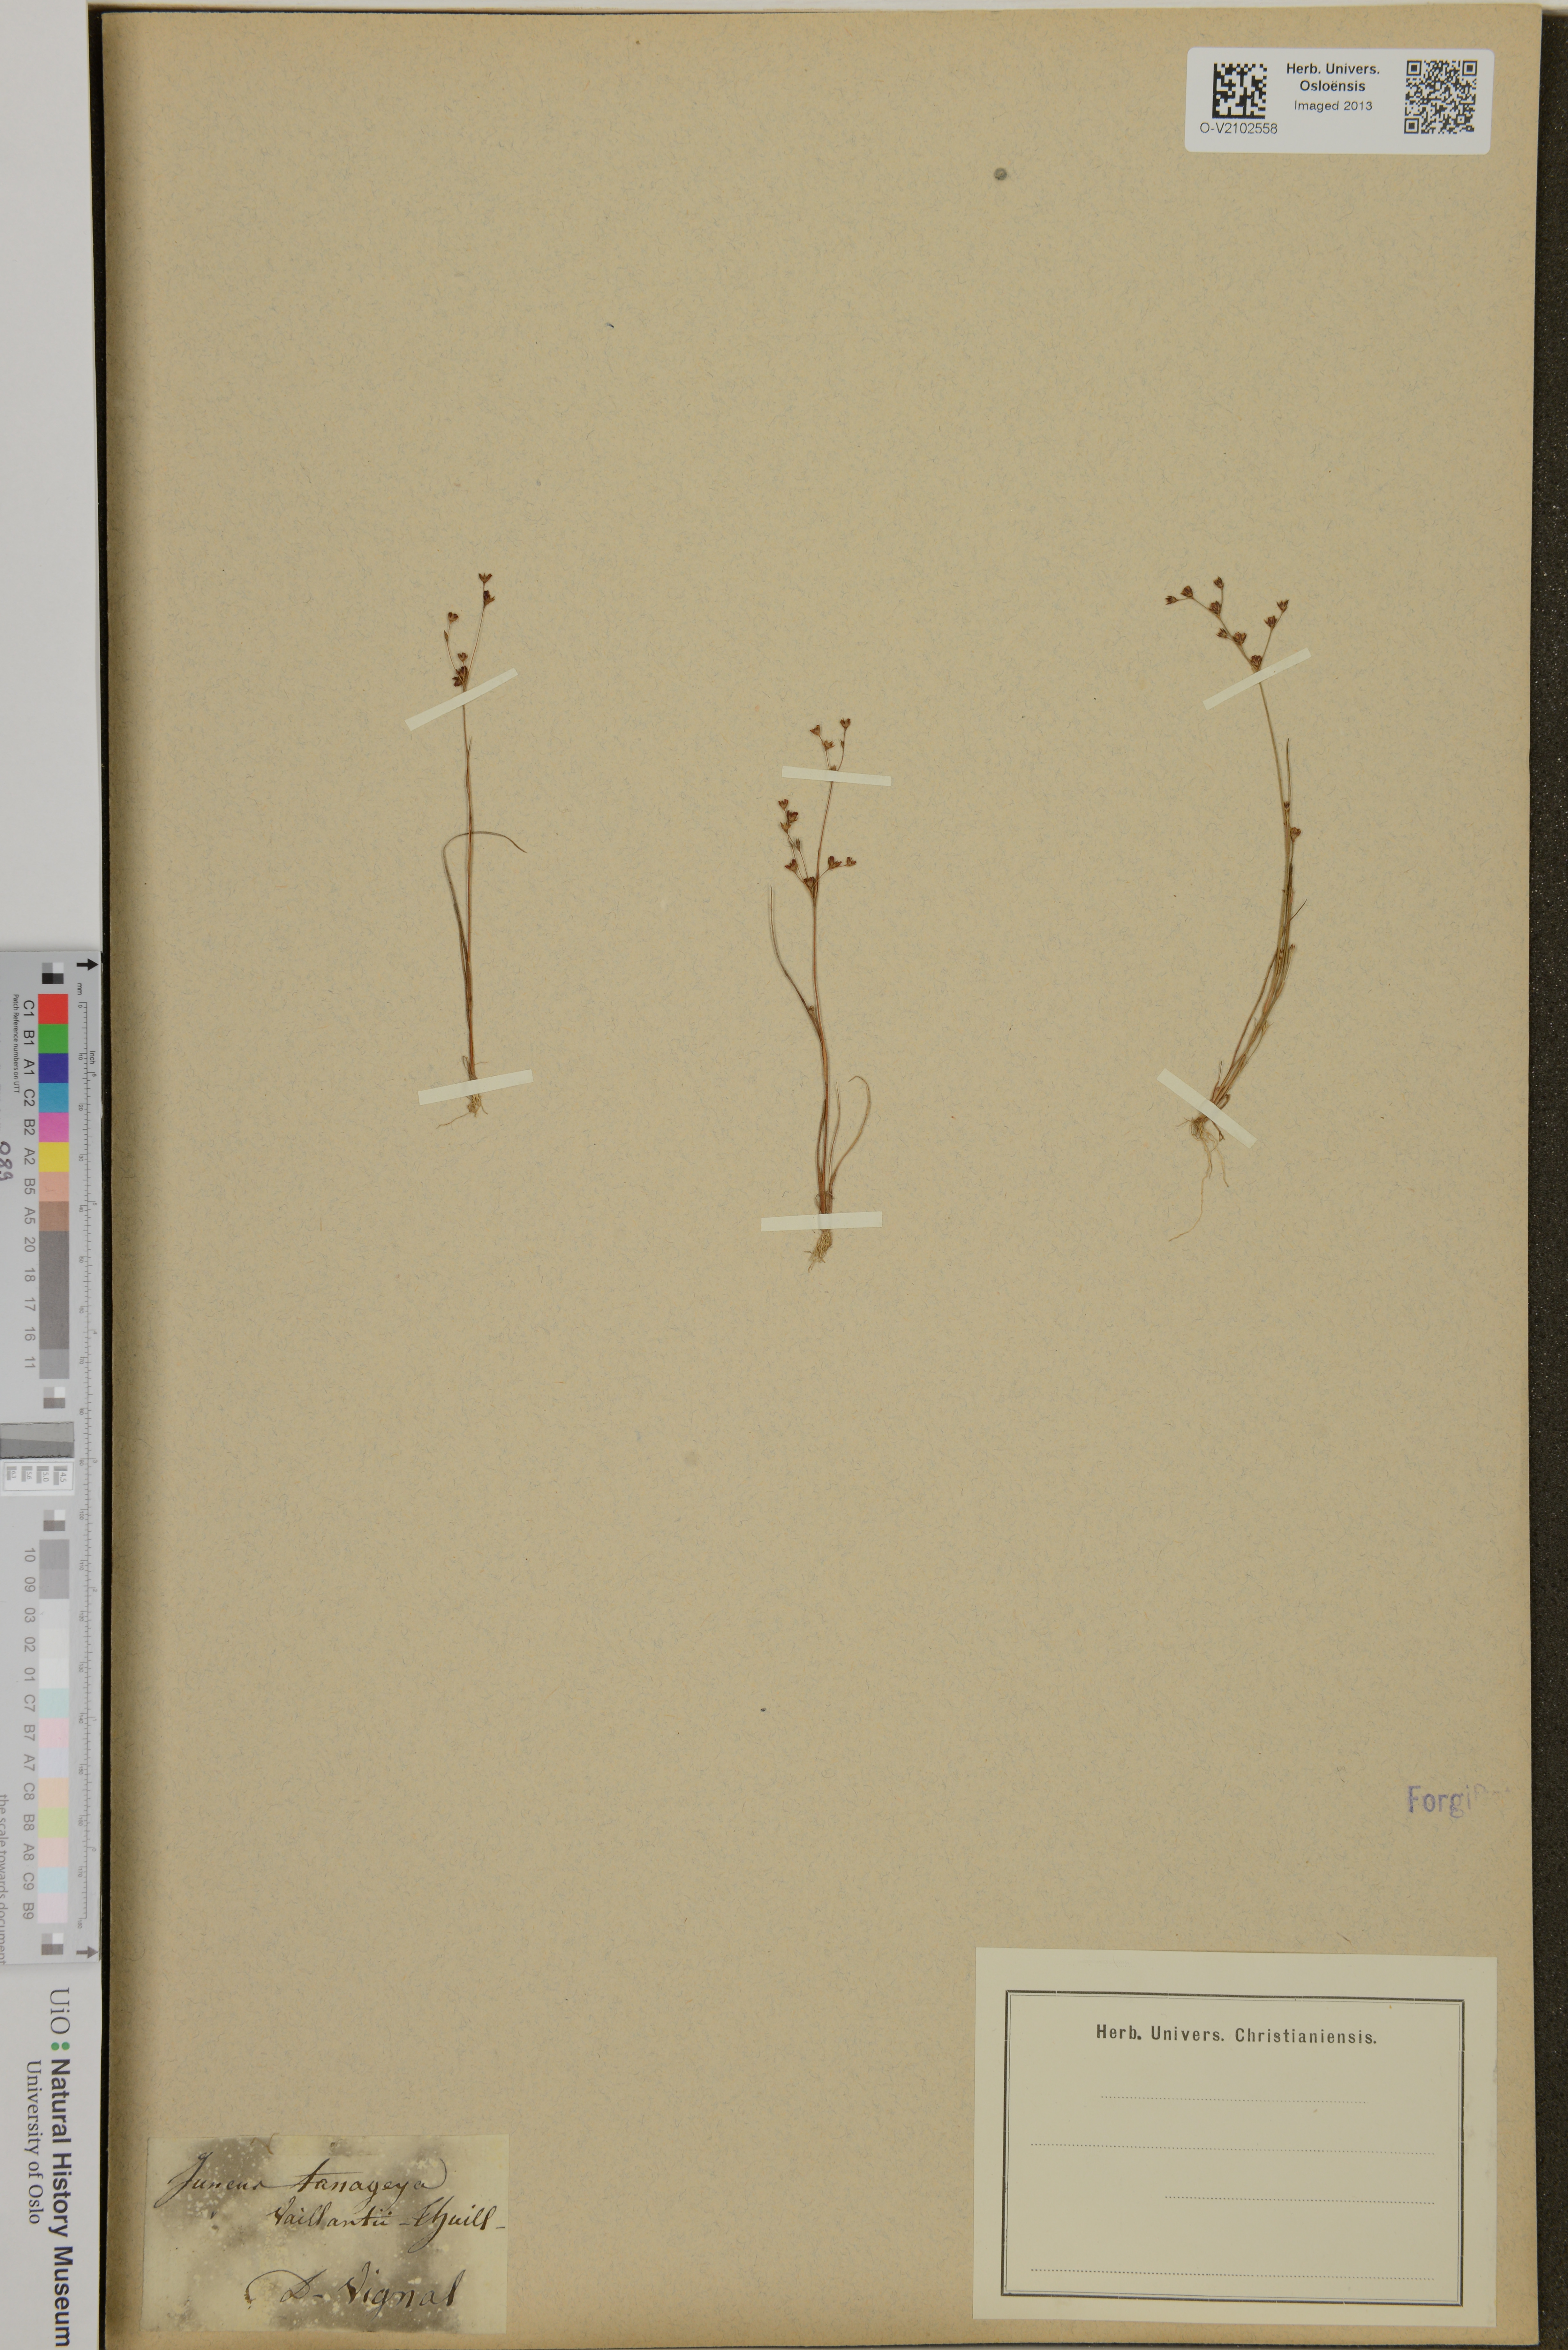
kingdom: Plantae
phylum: Tracheophyta
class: Liliopsida
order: Poales
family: Juncaceae
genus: Juncus
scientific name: Juncus tenageia
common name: Sand rush
